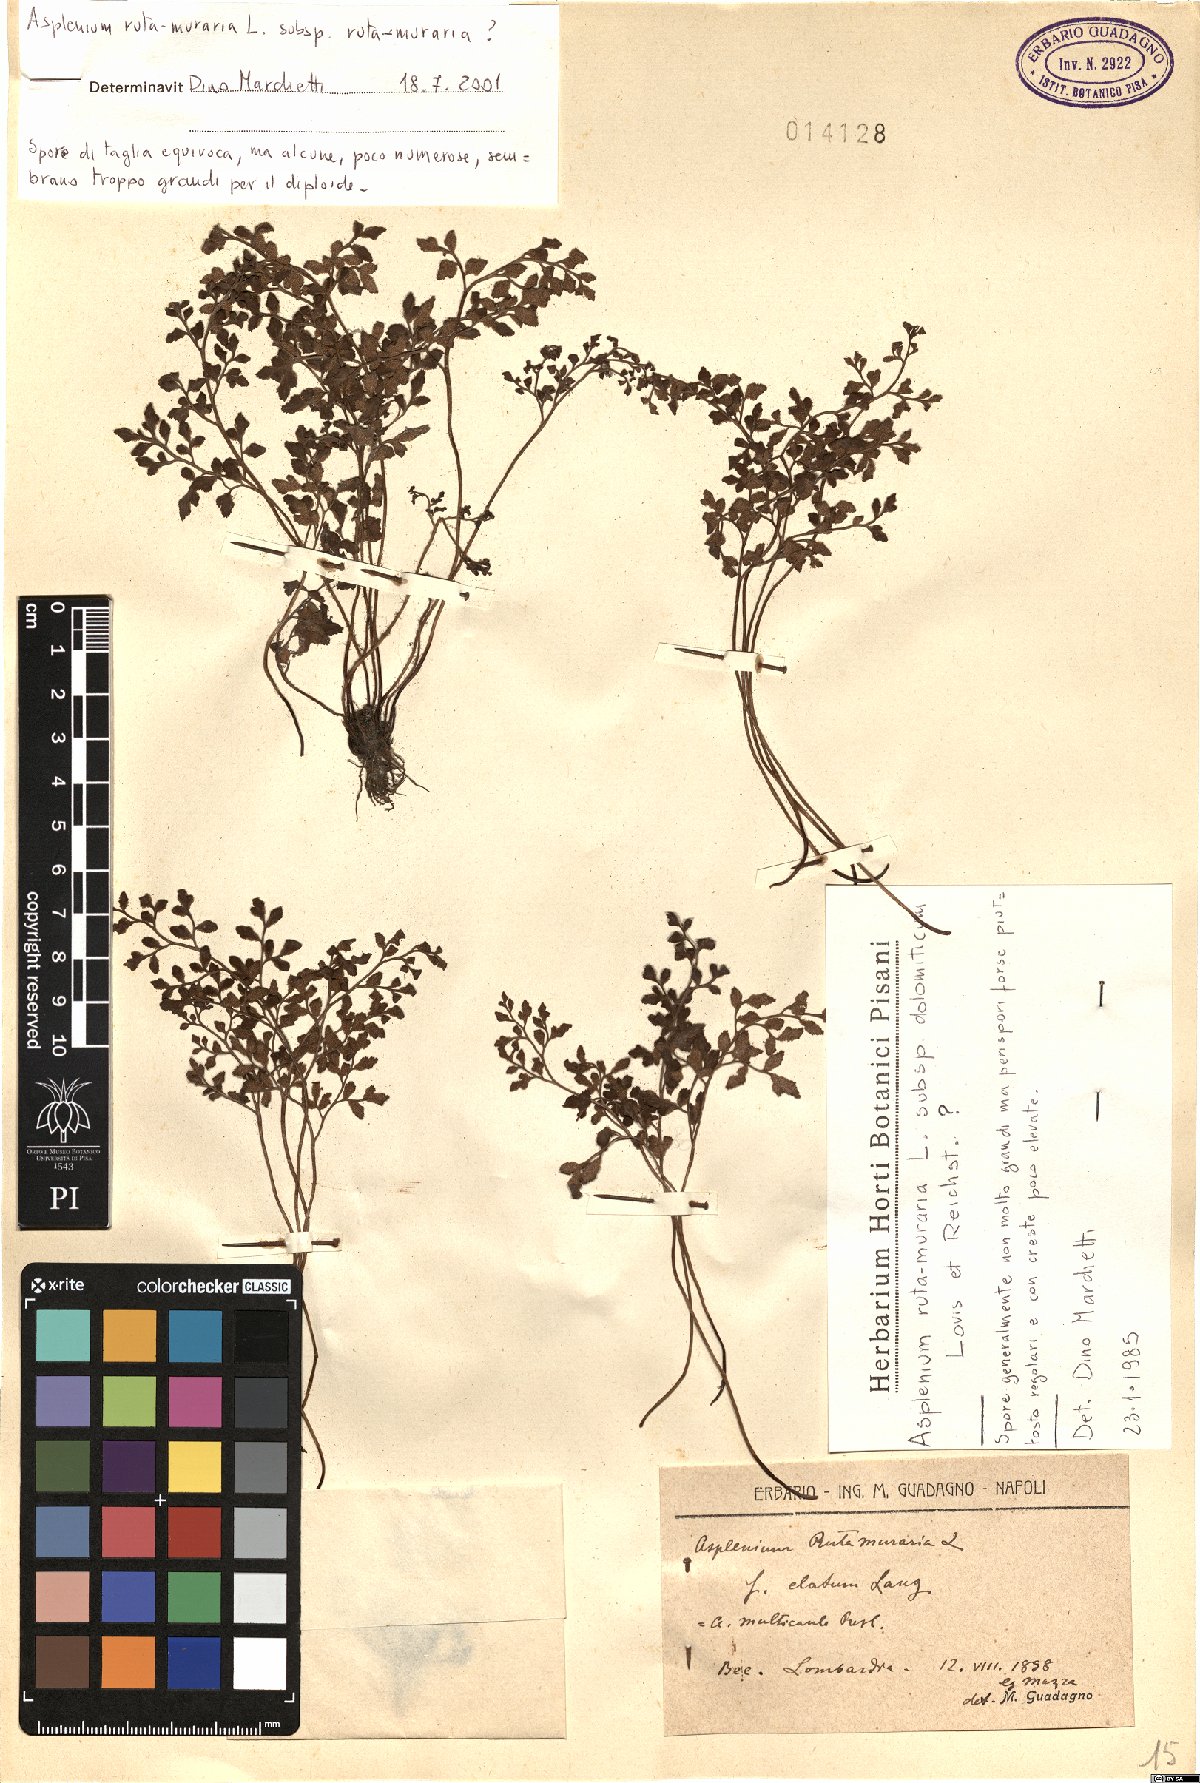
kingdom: Plantae
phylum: Tracheophyta
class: Polypodiopsida
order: Polypodiales
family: Aspleniaceae
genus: Asplenium
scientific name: Asplenium ruta-muraria
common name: Wall-rue
